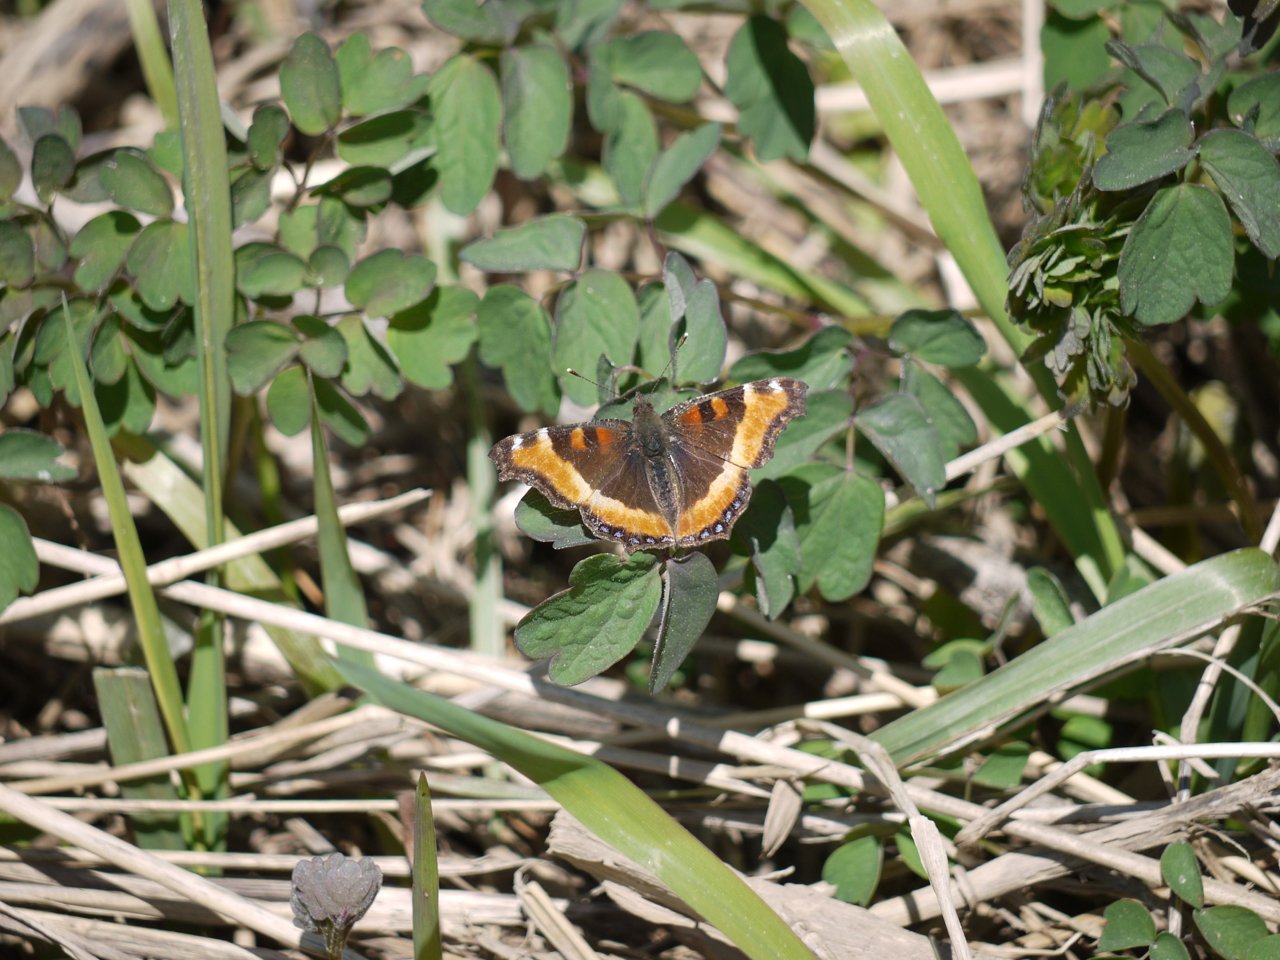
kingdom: Animalia
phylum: Arthropoda
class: Insecta
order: Lepidoptera
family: Nymphalidae
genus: Aglais
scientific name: Aglais milberti
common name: Milbert's Tortoiseshell
